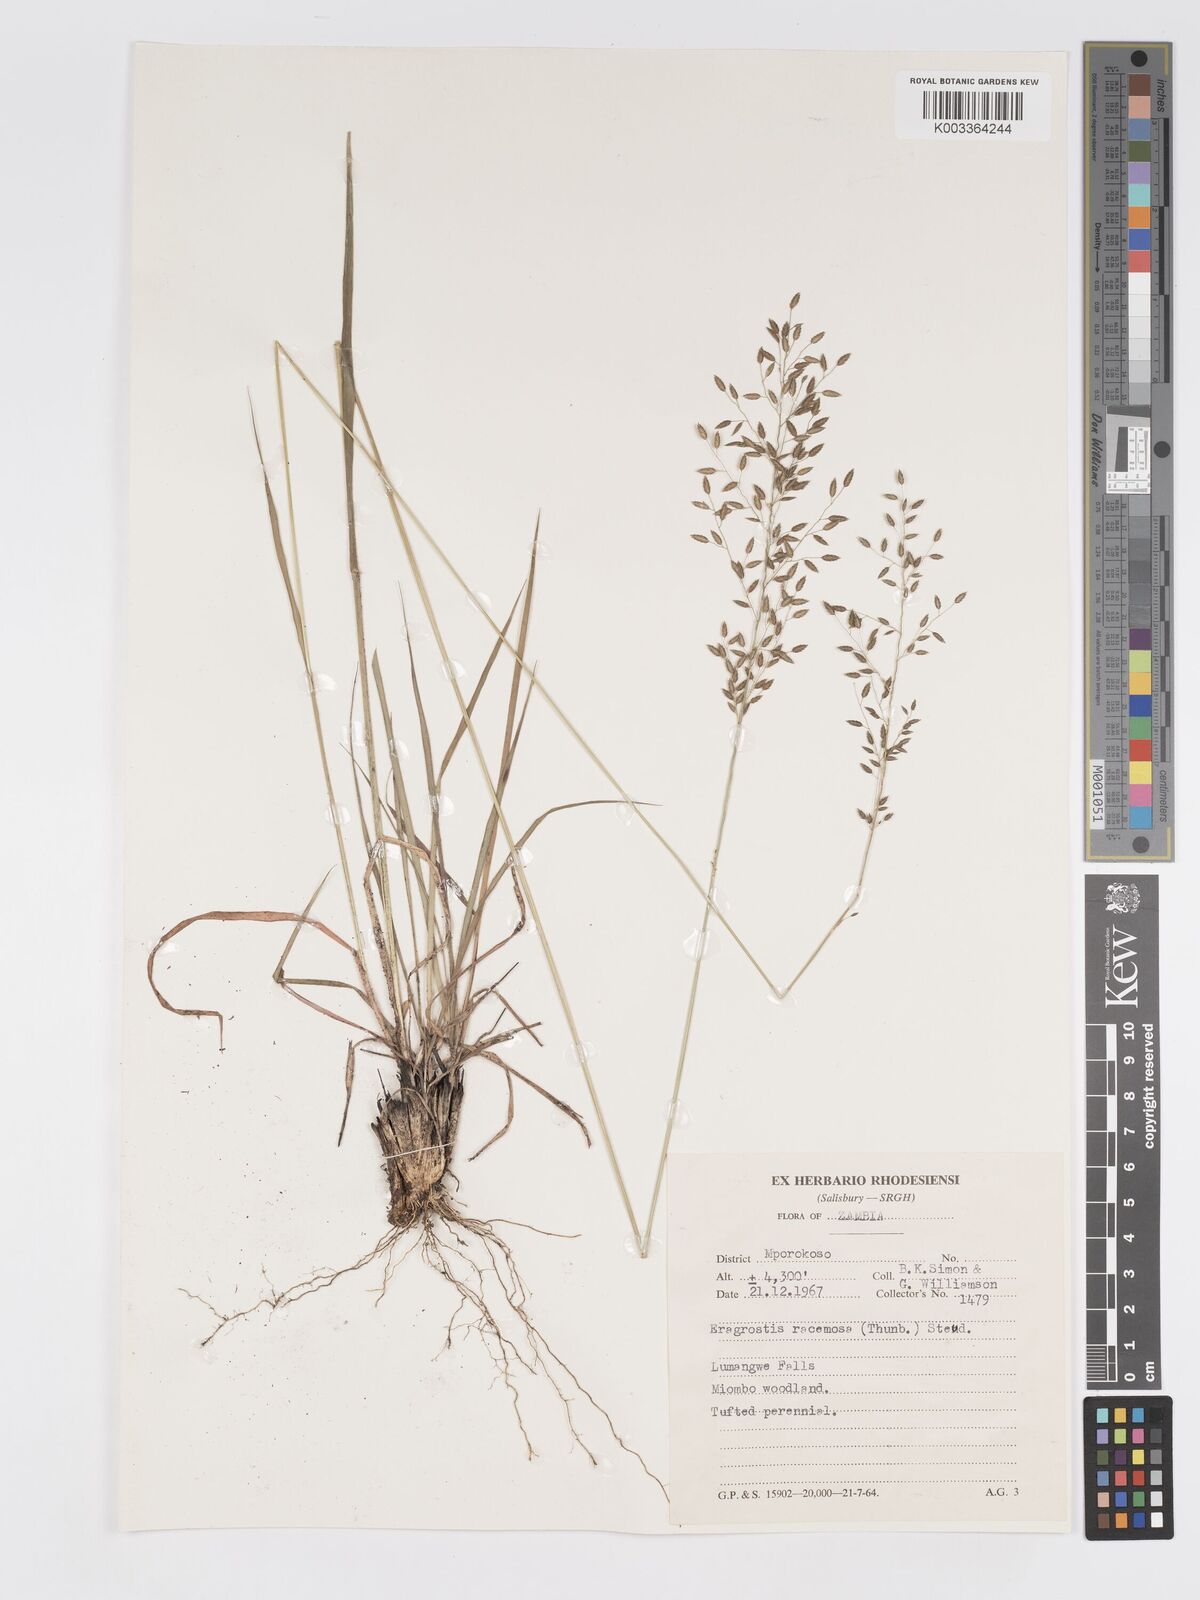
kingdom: Plantae
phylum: Tracheophyta
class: Liliopsida
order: Poales
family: Poaceae
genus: Eragrostis
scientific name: Eragrostis racemosa
